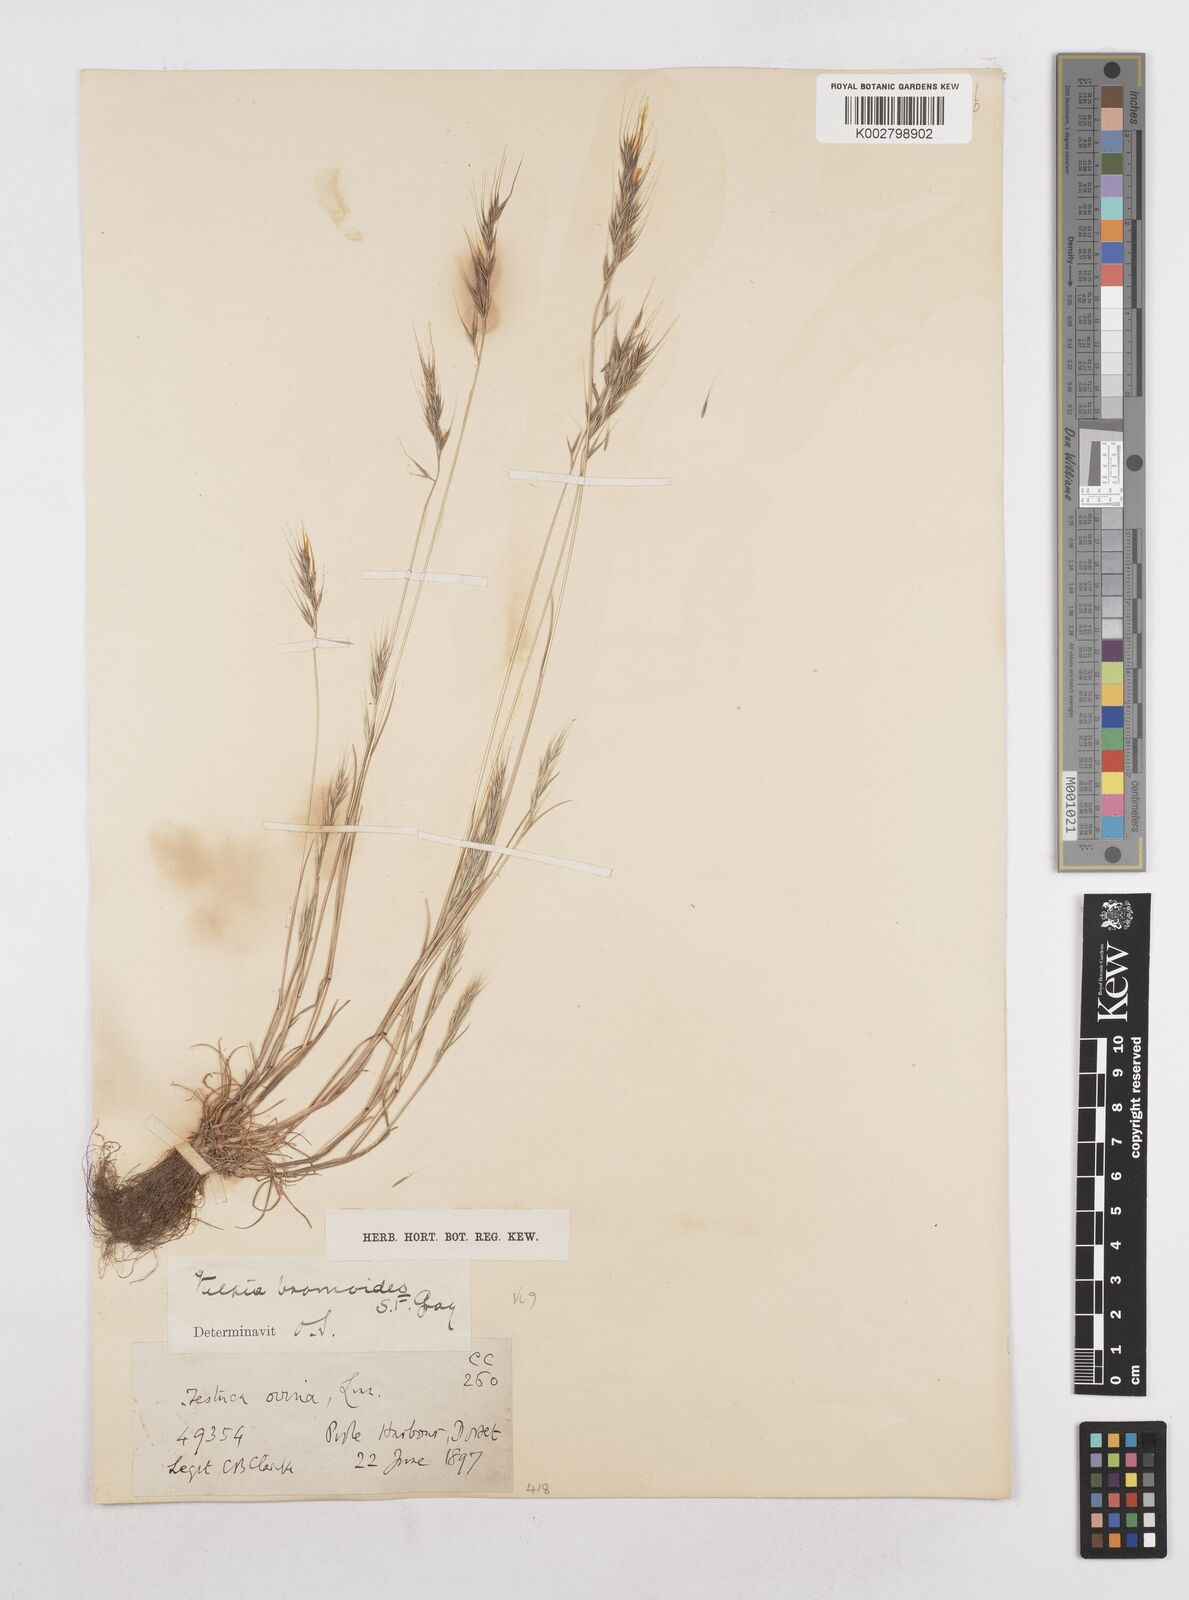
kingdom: Plantae
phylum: Tracheophyta
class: Liliopsida
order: Poales
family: Poaceae
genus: Festuca
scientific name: Festuca bromoides
